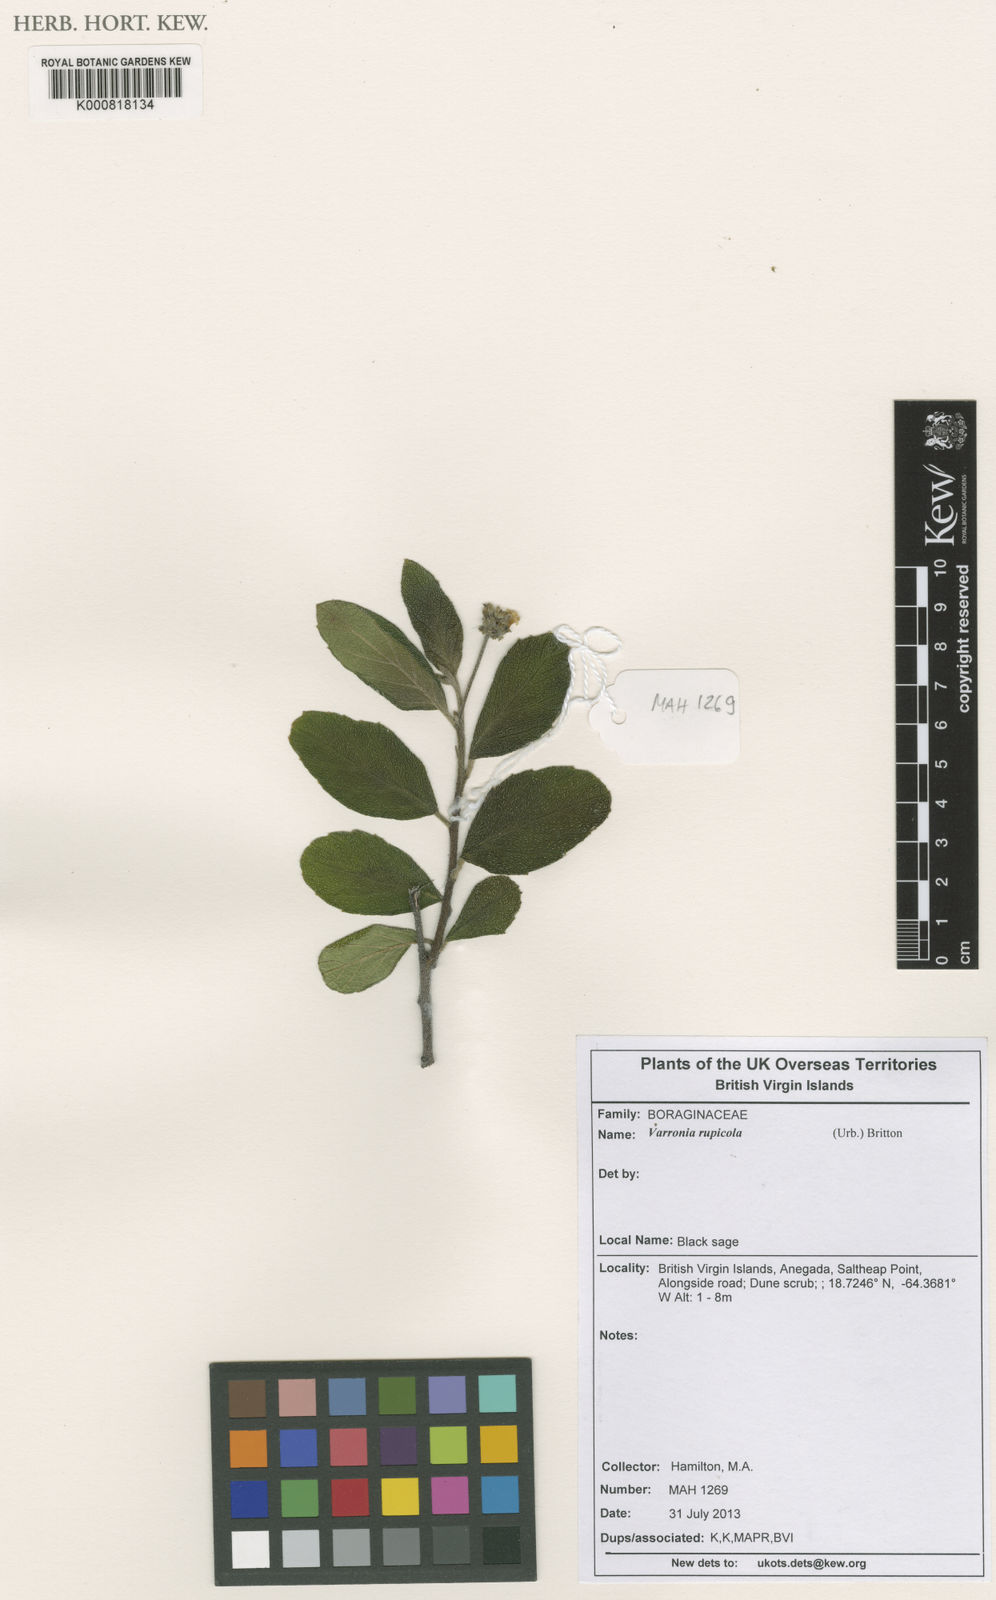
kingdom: Plantae
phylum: Tracheophyta
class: Magnoliopsida
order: Boraginales
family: Cordiaceae
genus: Varronia
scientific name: Varronia rupicola
